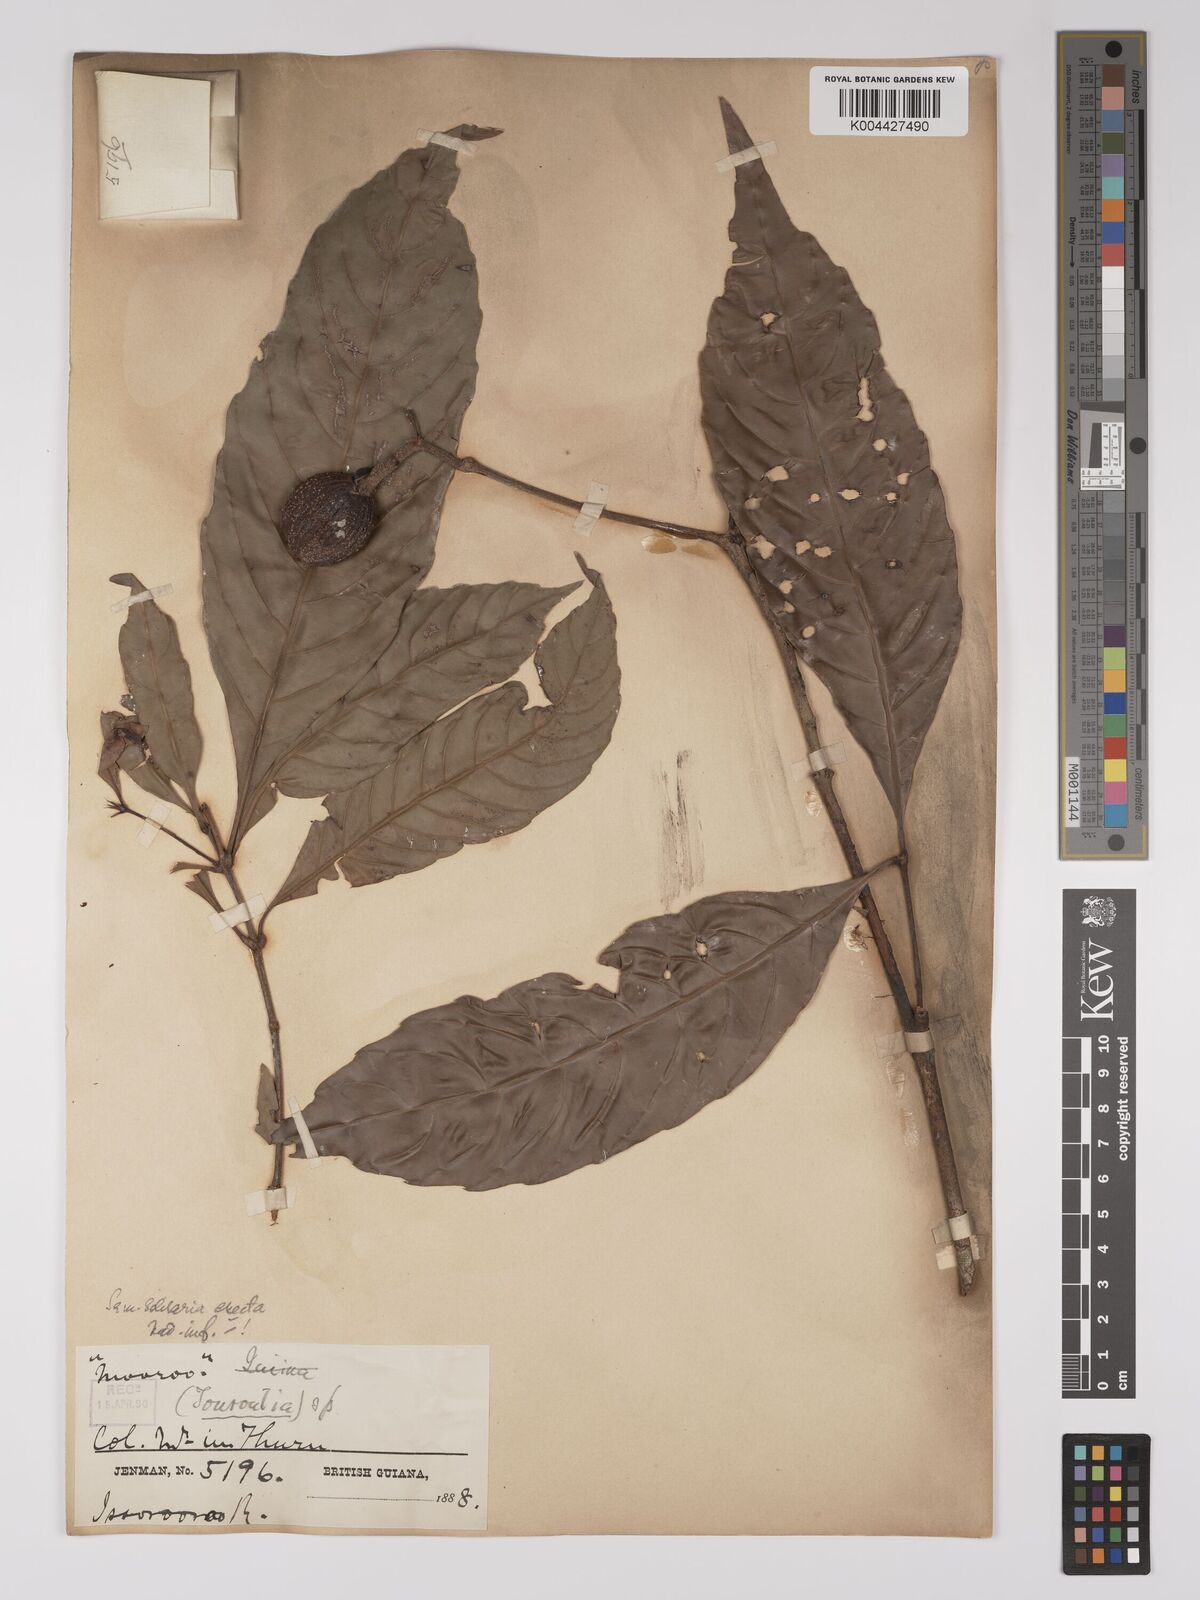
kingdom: Plantae
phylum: Tracheophyta
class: Magnoliopsida
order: Malpighiales
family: Quiinaceae
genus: Lacunaria
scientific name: Lacunaria jenmanii
